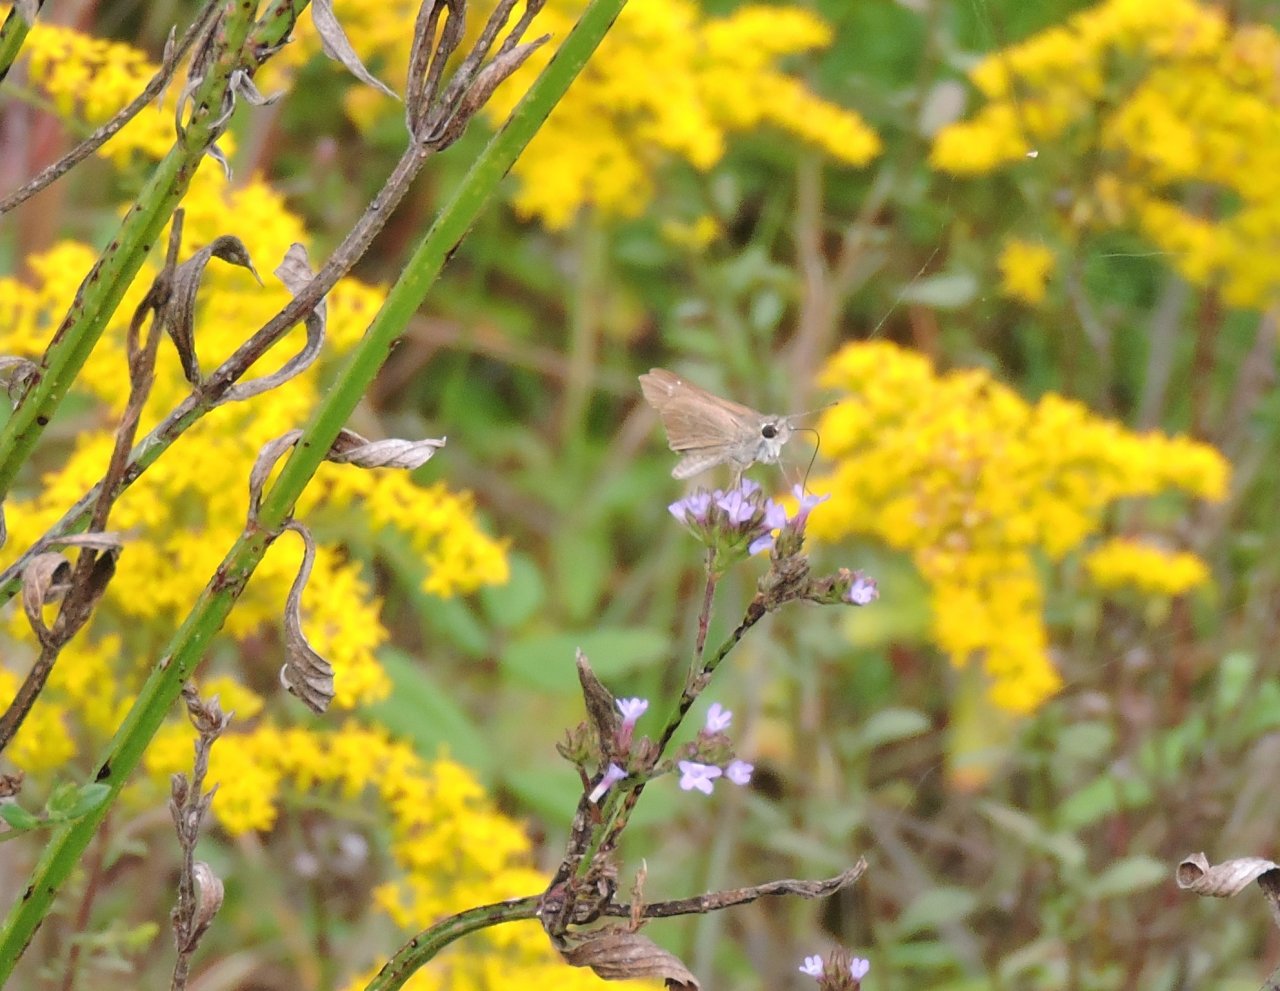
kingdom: Animalia
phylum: Arthropoda
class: Insecta
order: Lepidoptera
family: Hesperiidae
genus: Lerodea
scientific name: Lerodea eufala
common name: Eufala Skipper
